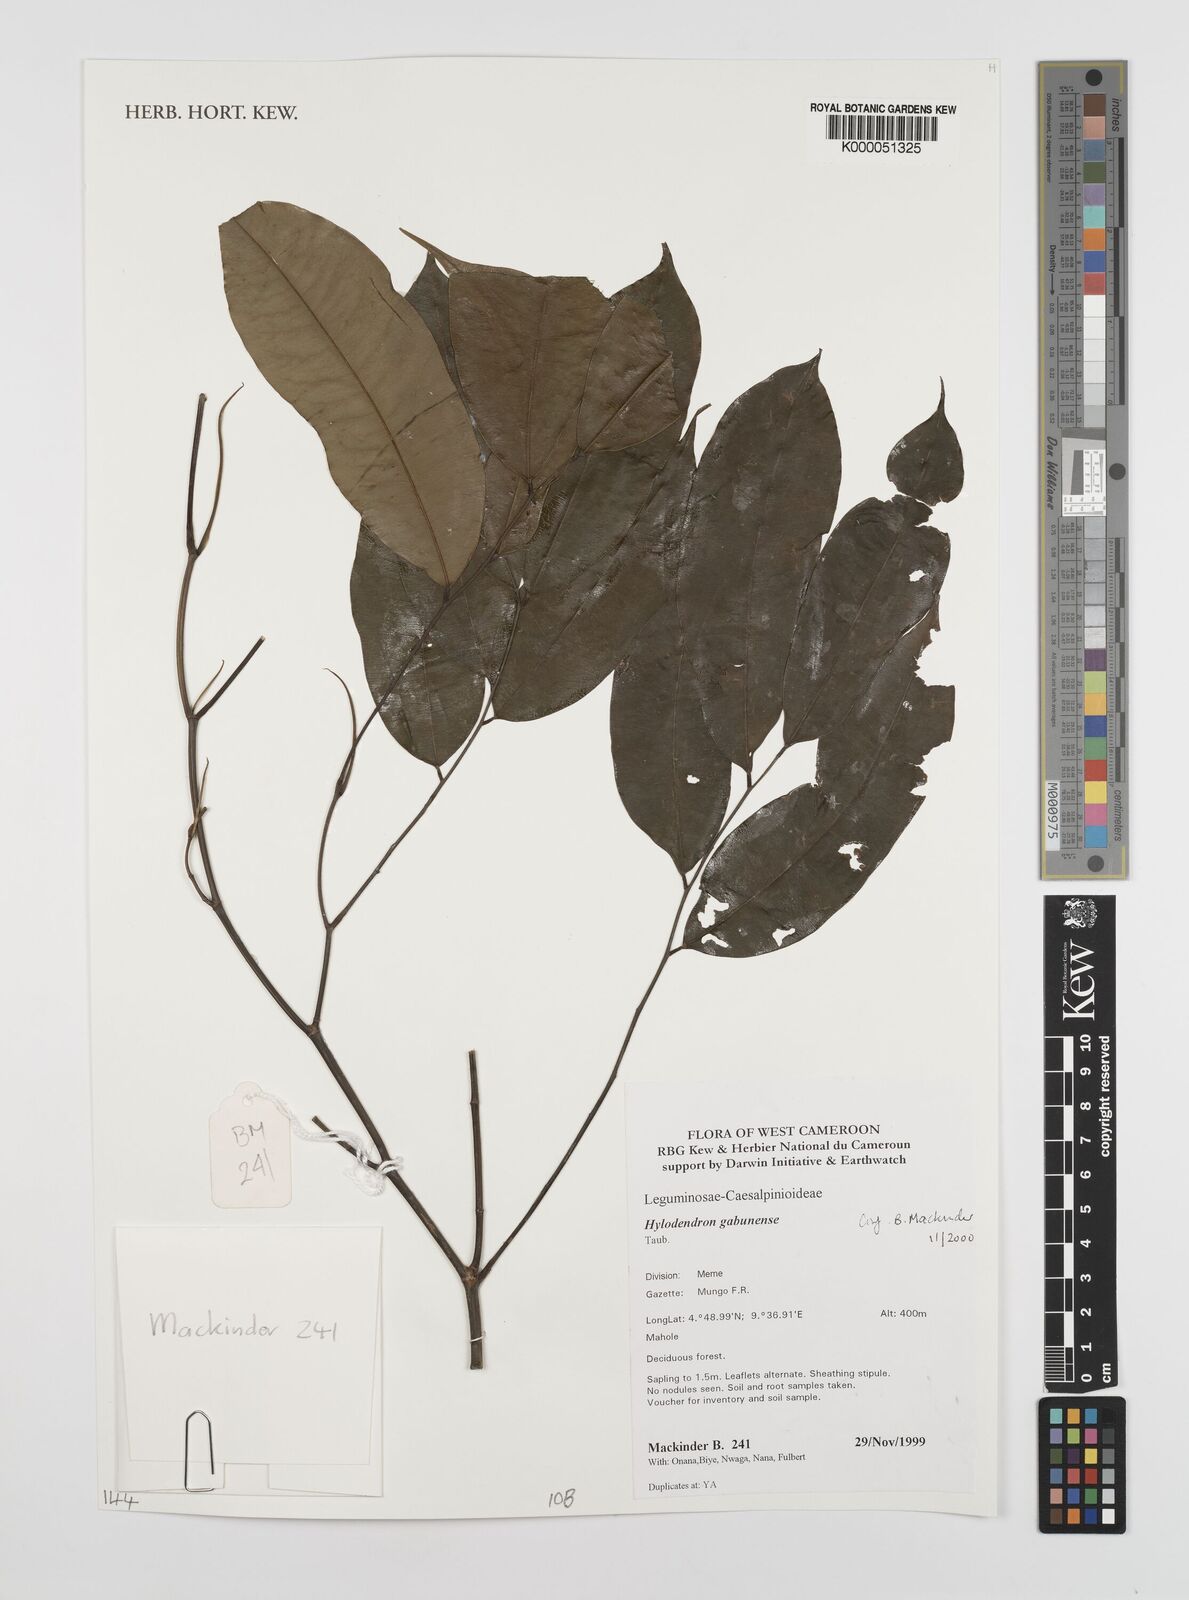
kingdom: Plantae
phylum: Tracheophyta
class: Magnoliopsida
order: Fabales
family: Fabaceae
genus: Hylodendron
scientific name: Hylodendron gabunense
